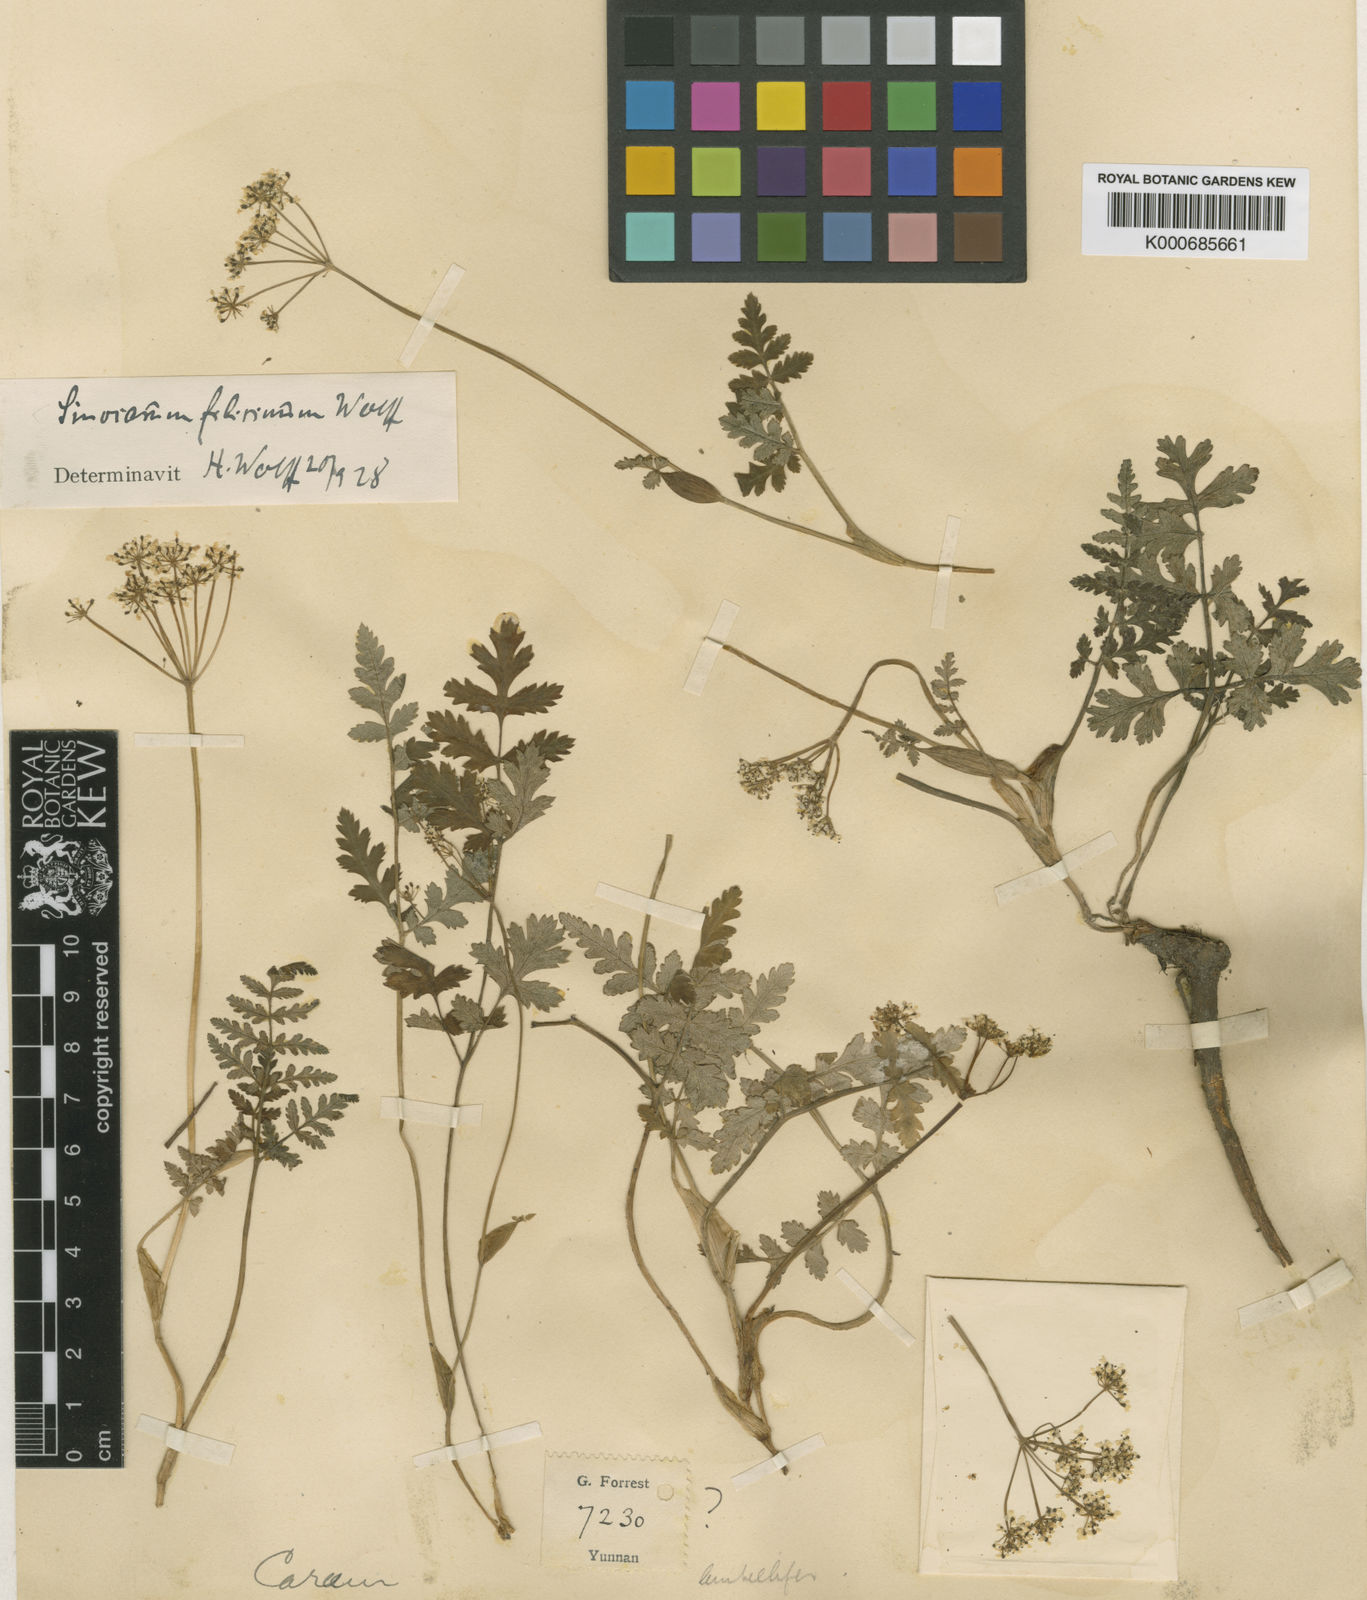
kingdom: Plantae
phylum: Tracheophyta
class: Magnoliopsida
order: Apiales
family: Apiaceae
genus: Sinocarum
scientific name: Sinocarum filicinum
